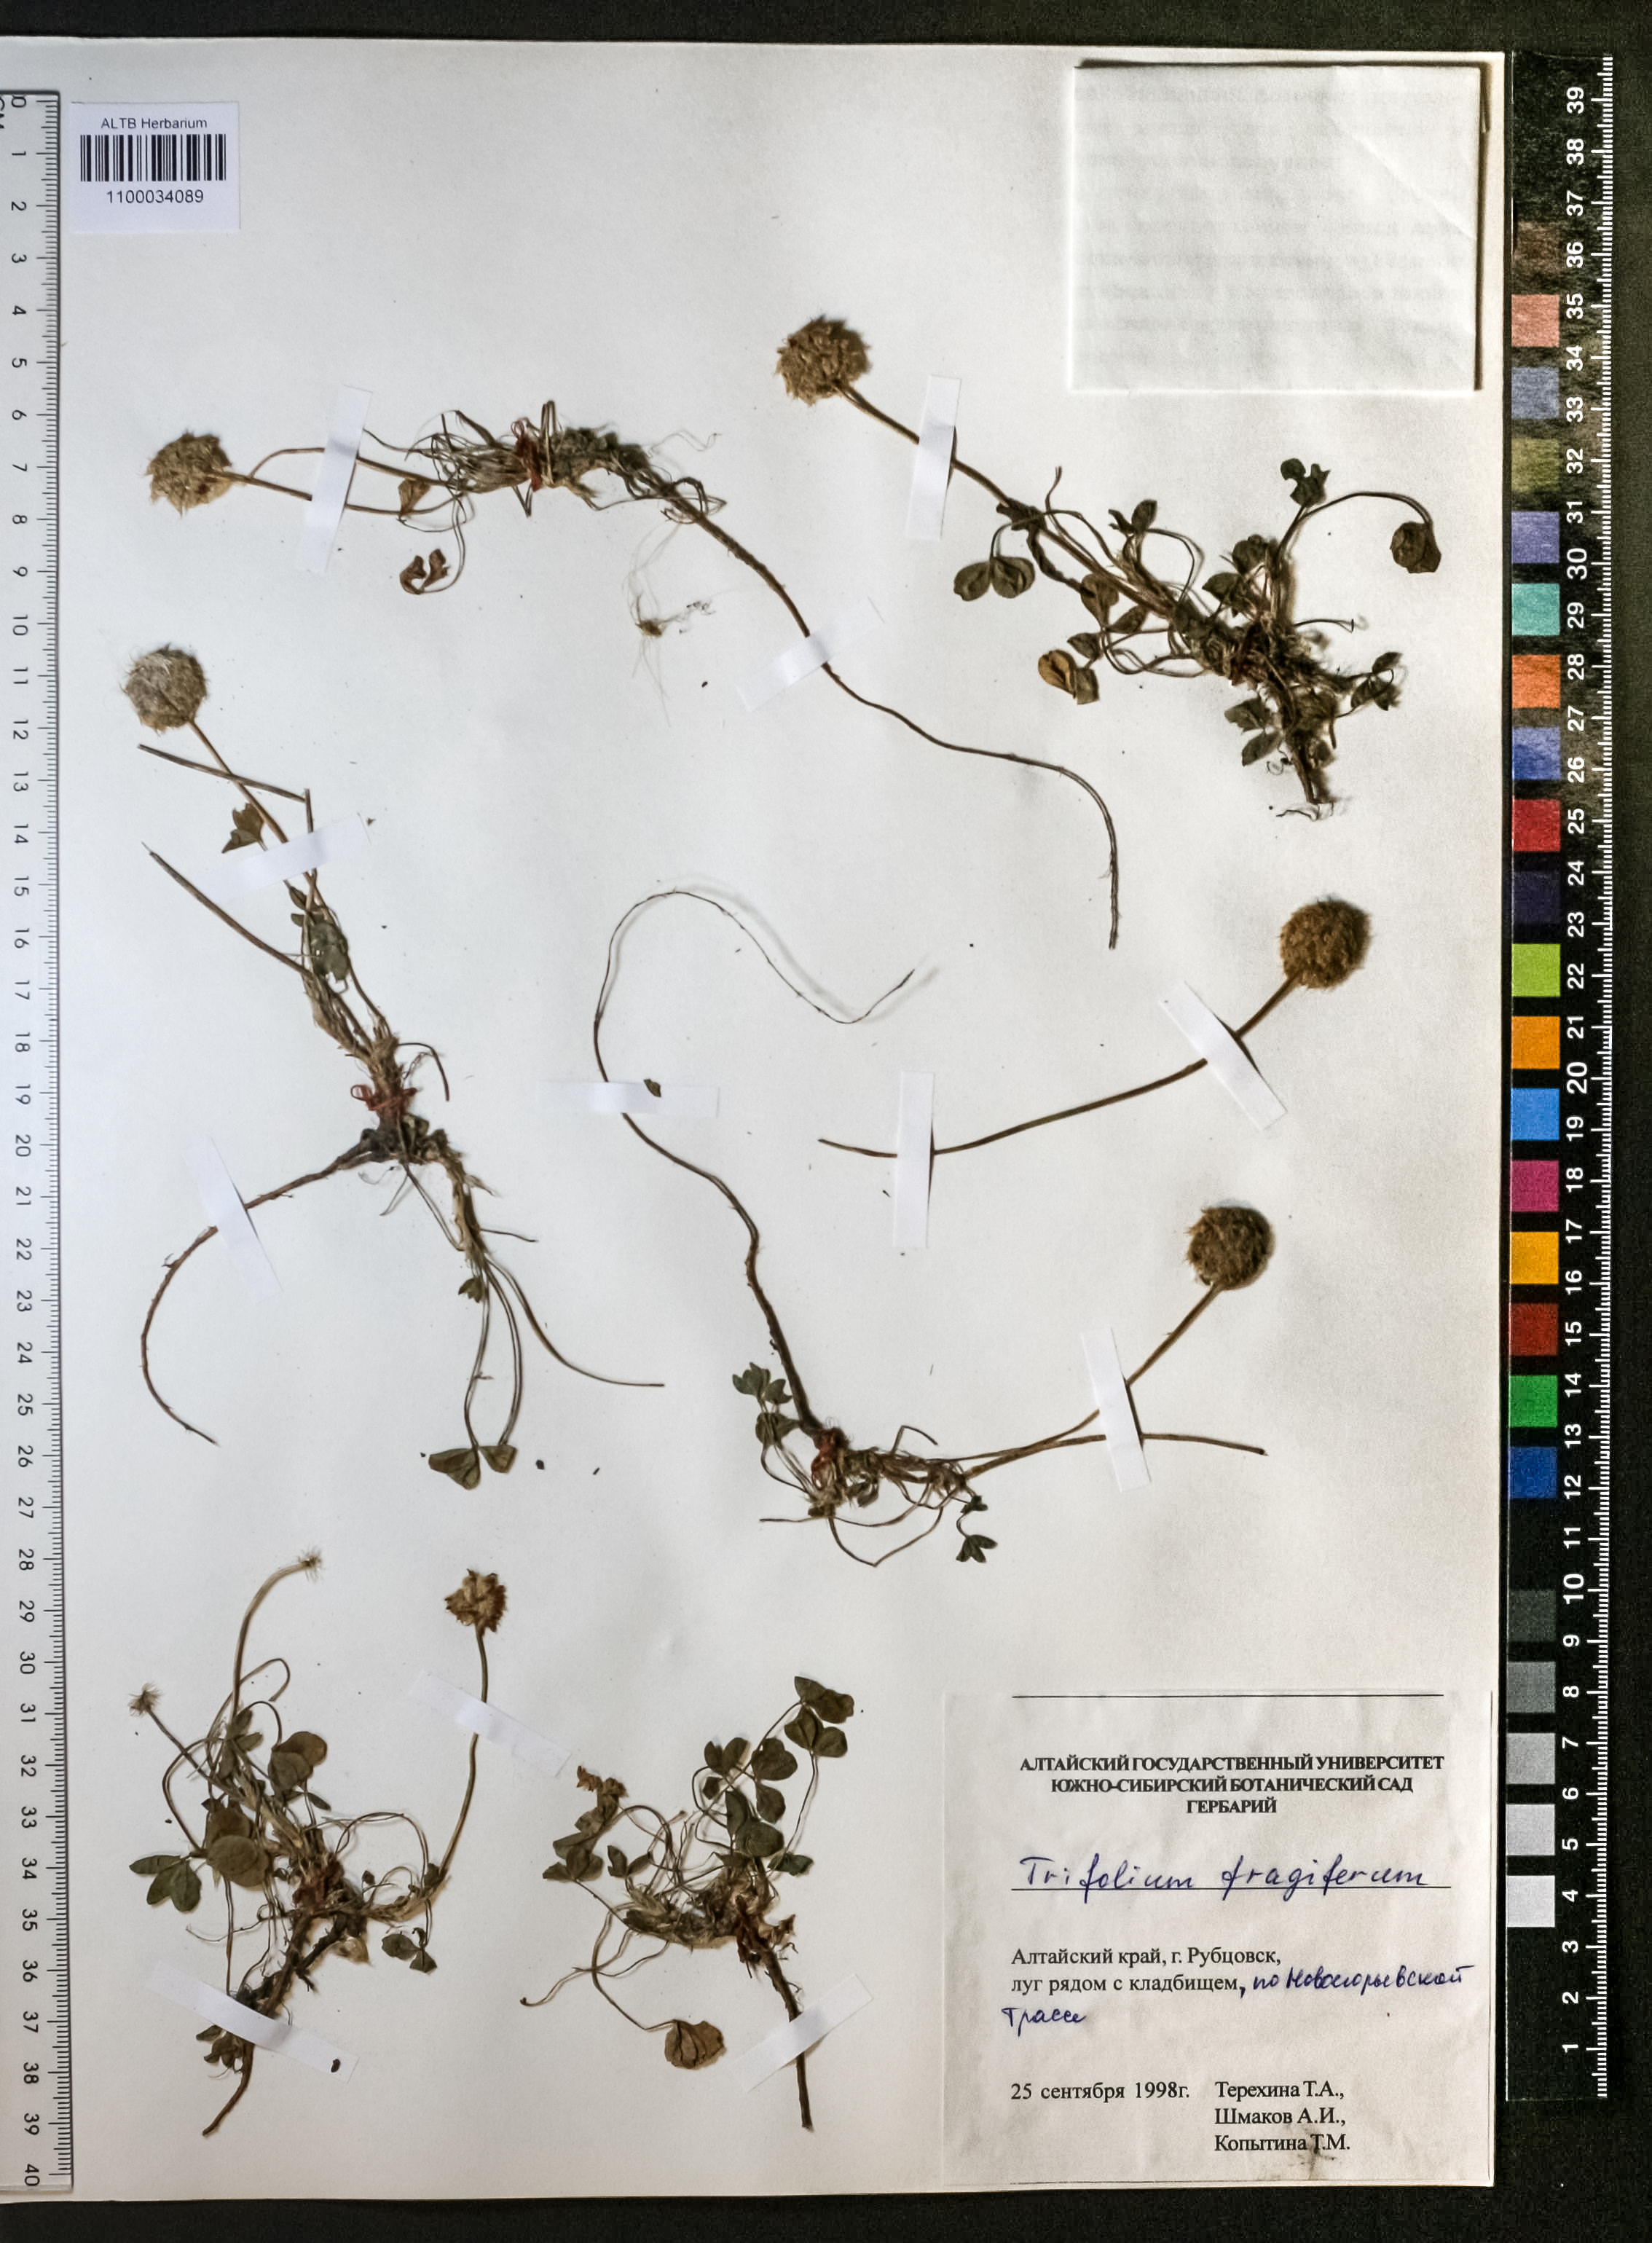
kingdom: Plantae
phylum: Tracheophyta
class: Magnoliopsida
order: Fabales
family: Fabaceae
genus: Trifolium
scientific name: Trifolium fragiferum
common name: Strawberry clover
